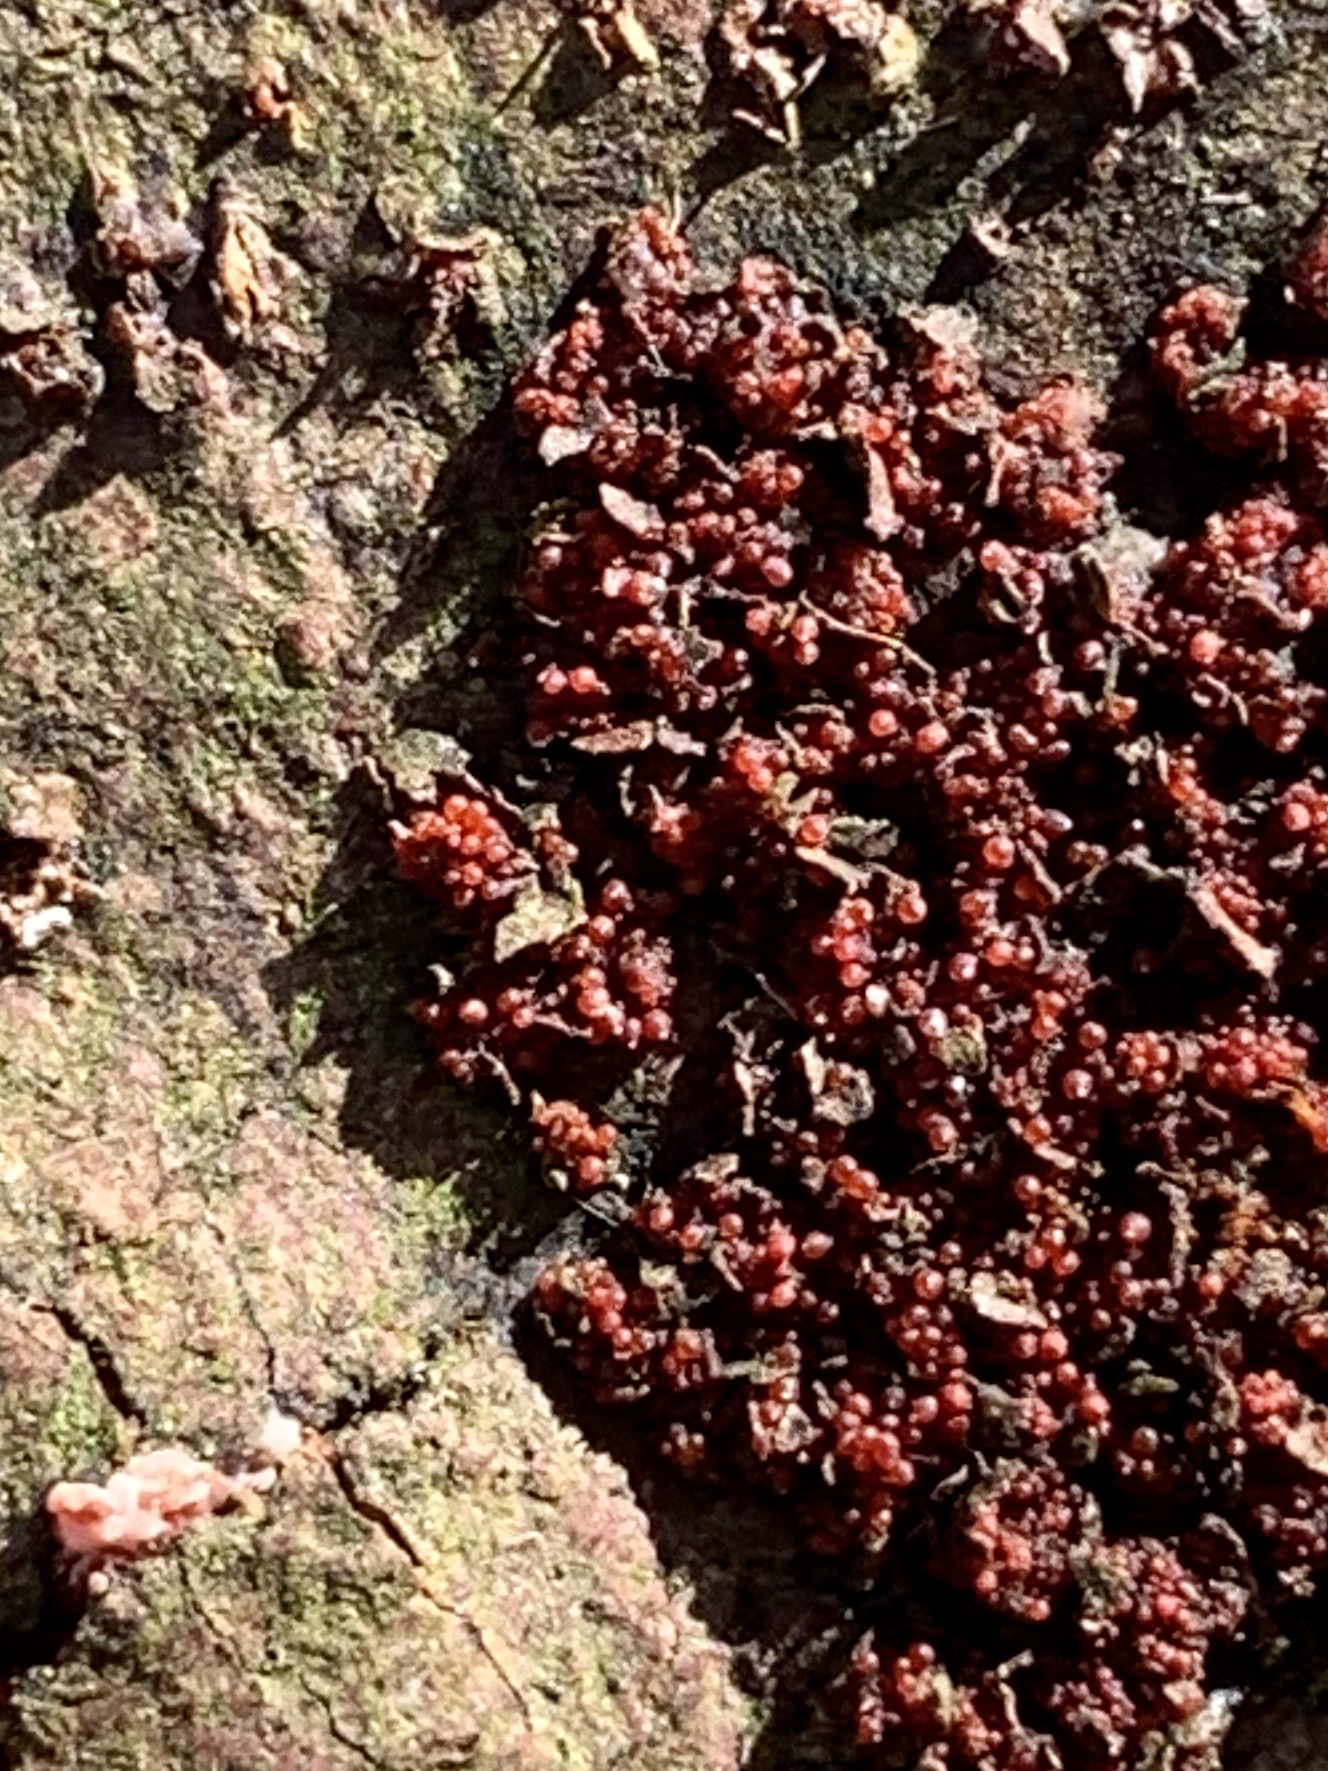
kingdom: Fungi
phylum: Ascomycota
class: Sordariomycetes
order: Hypocreales
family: Nectriaceae
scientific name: Nectriaceae
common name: cinnobersvampfamilien
